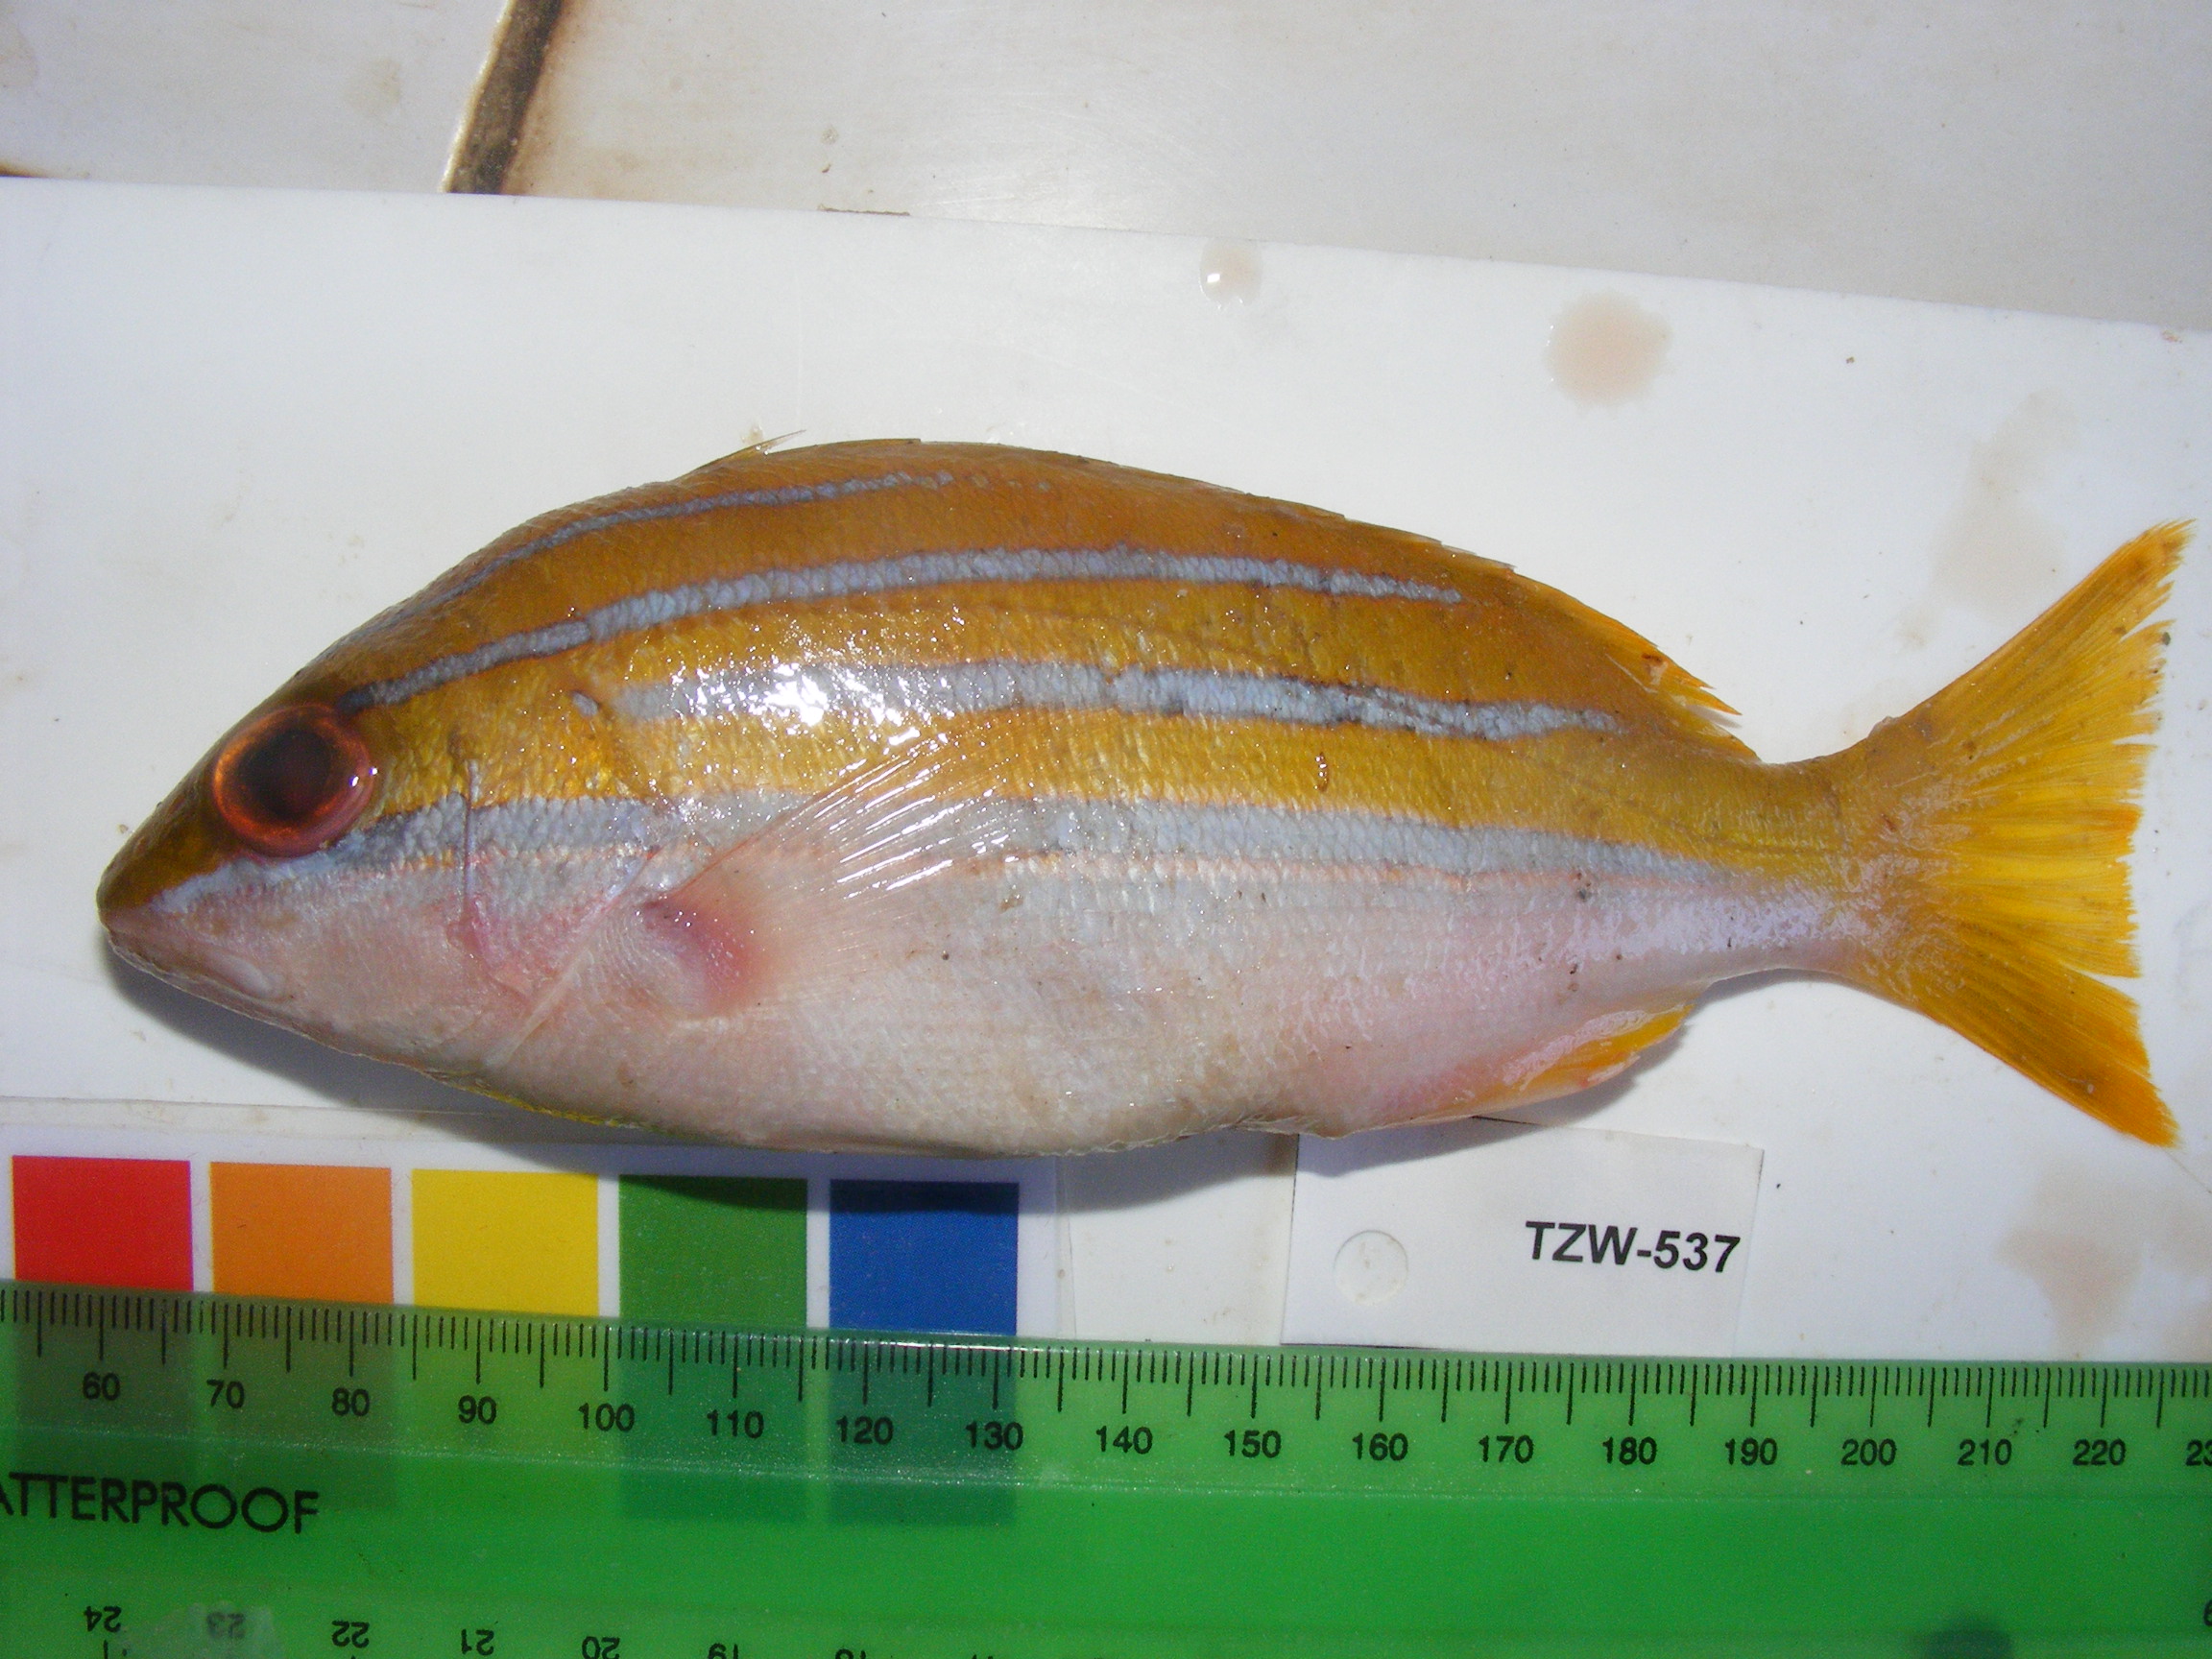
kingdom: Animalia
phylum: Chordata
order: Perciformes
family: Lutjanidae
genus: Lutjanus
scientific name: Lutjanus kasmira
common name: Common bluestripe snapper
